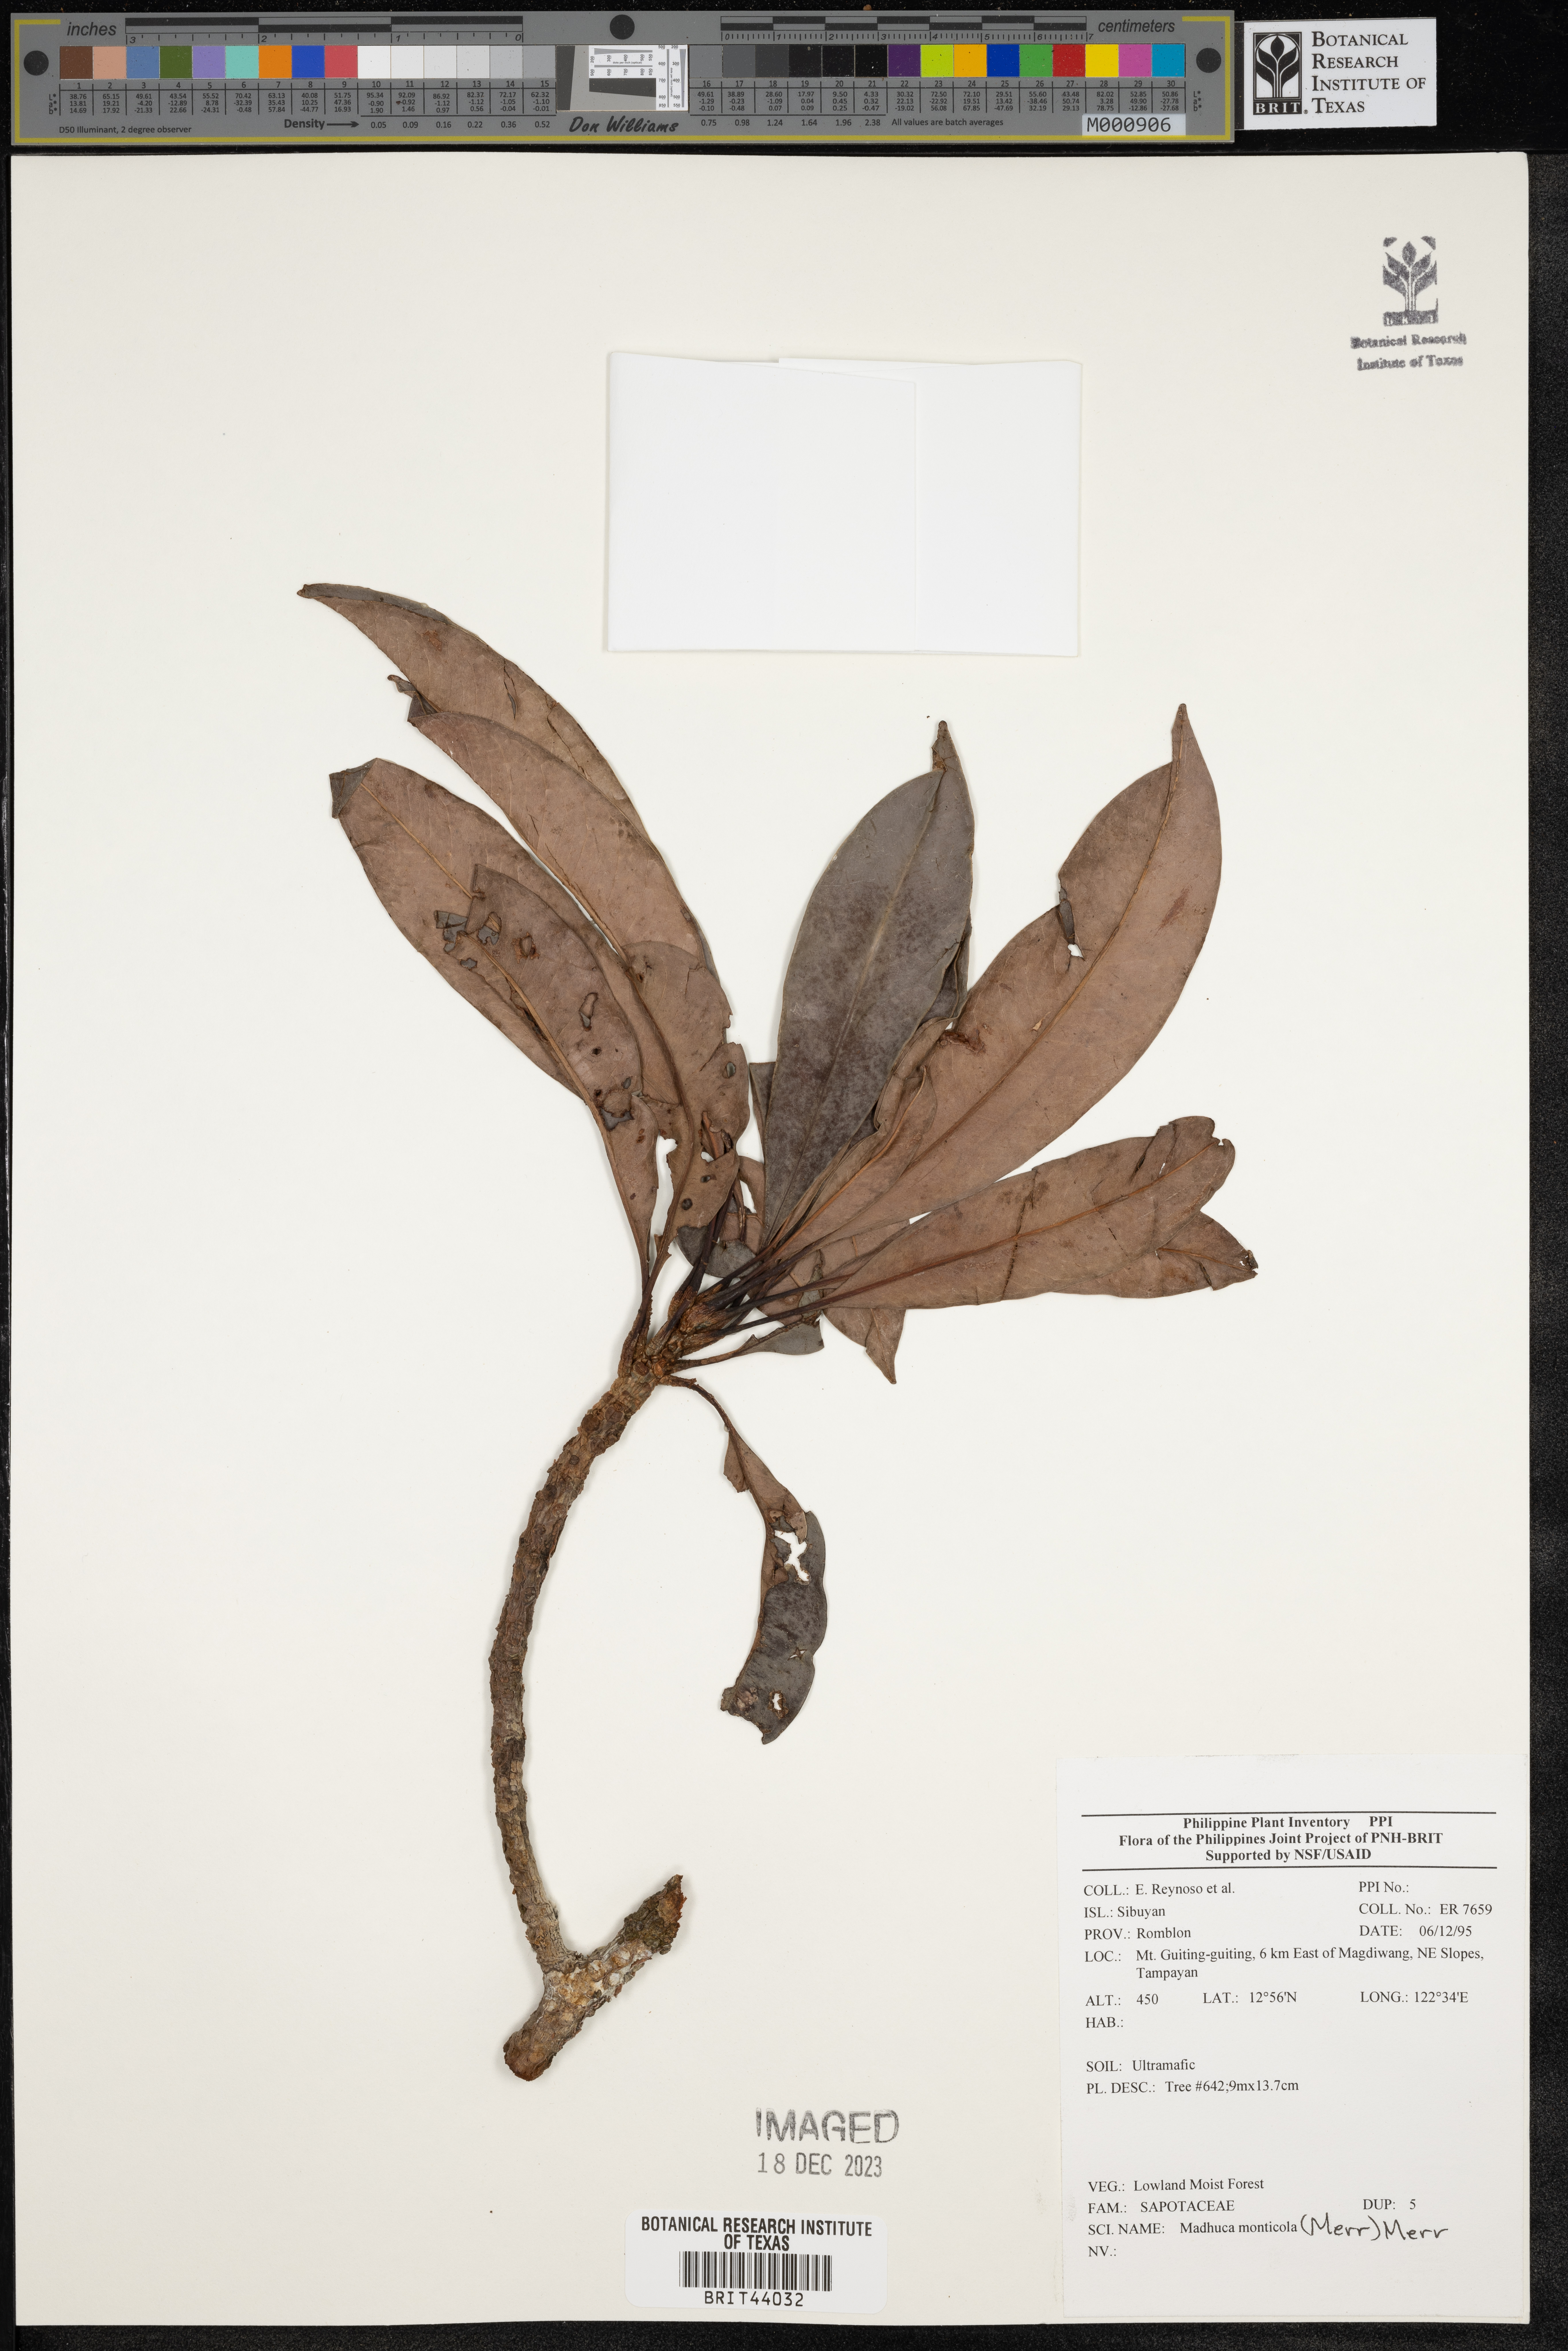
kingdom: Plantae
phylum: Tracheophyta
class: Magnoliopsida
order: Ericales
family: Sapotaceae
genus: Madhuca
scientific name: Madhuca
